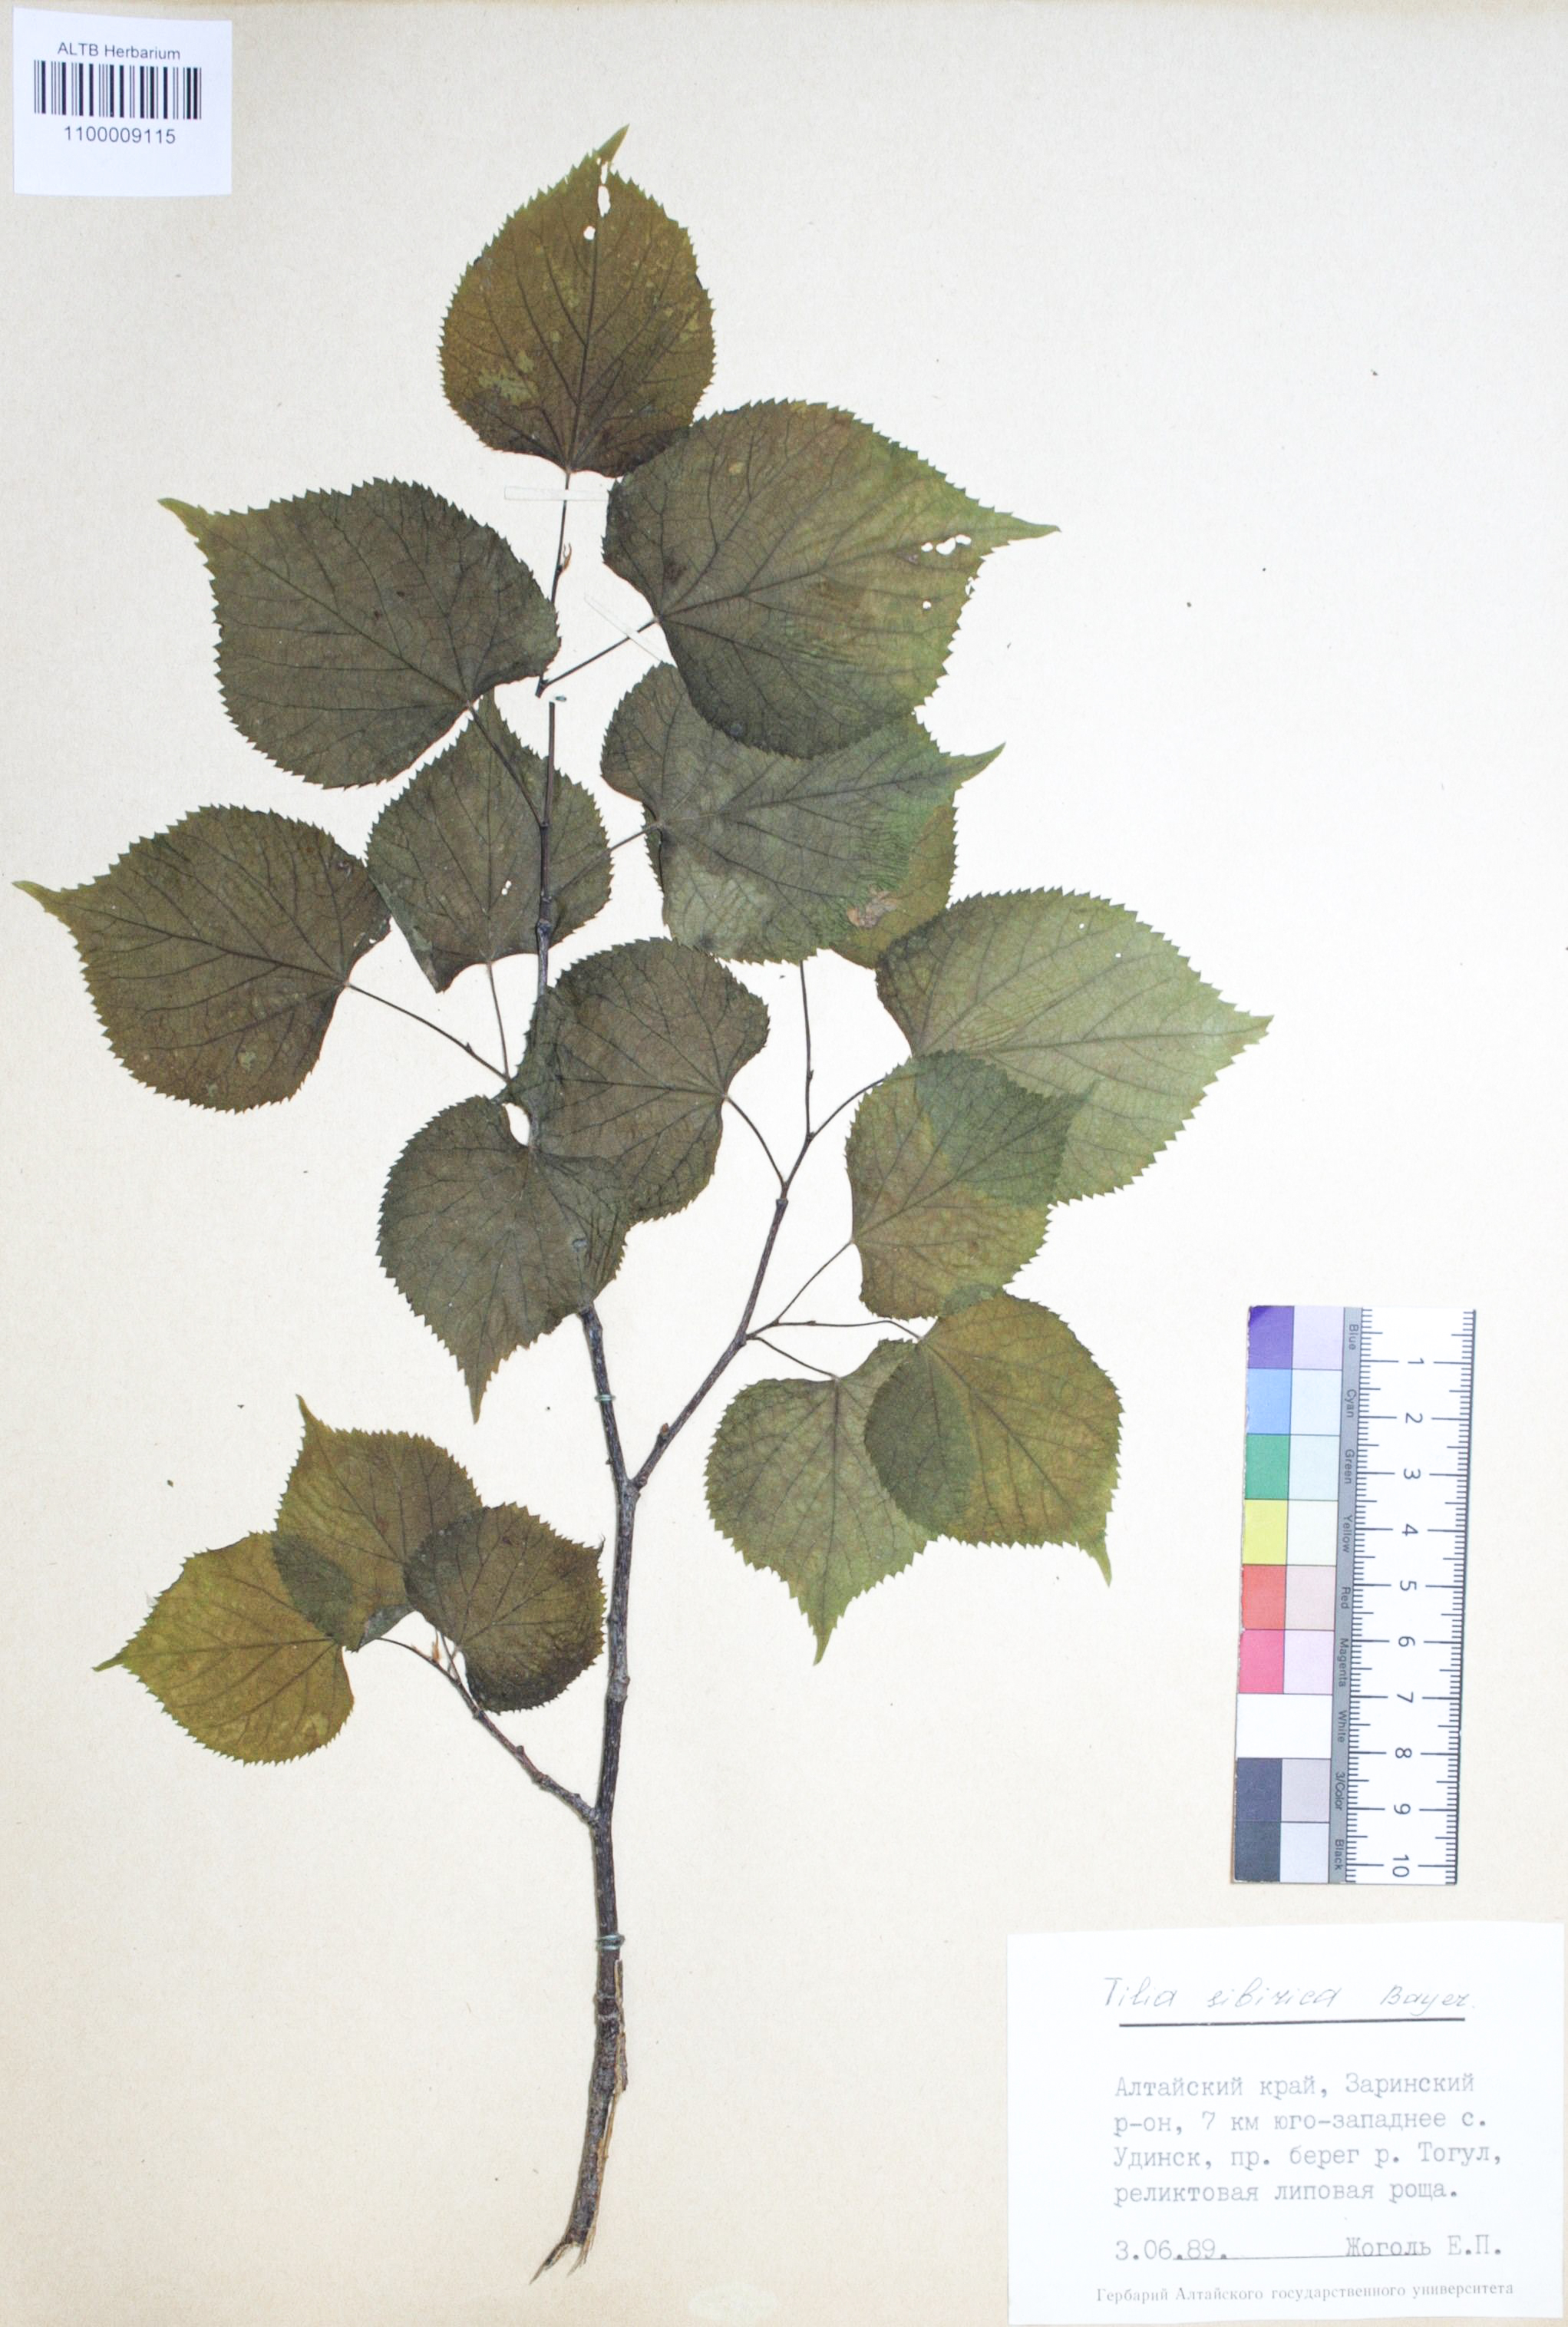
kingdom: Plantae
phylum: Tracheophyta
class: Magnoliopsida
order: Malvales
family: Malvaceae
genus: Tilia
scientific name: Tilia cordata
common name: Small-leaved lime
